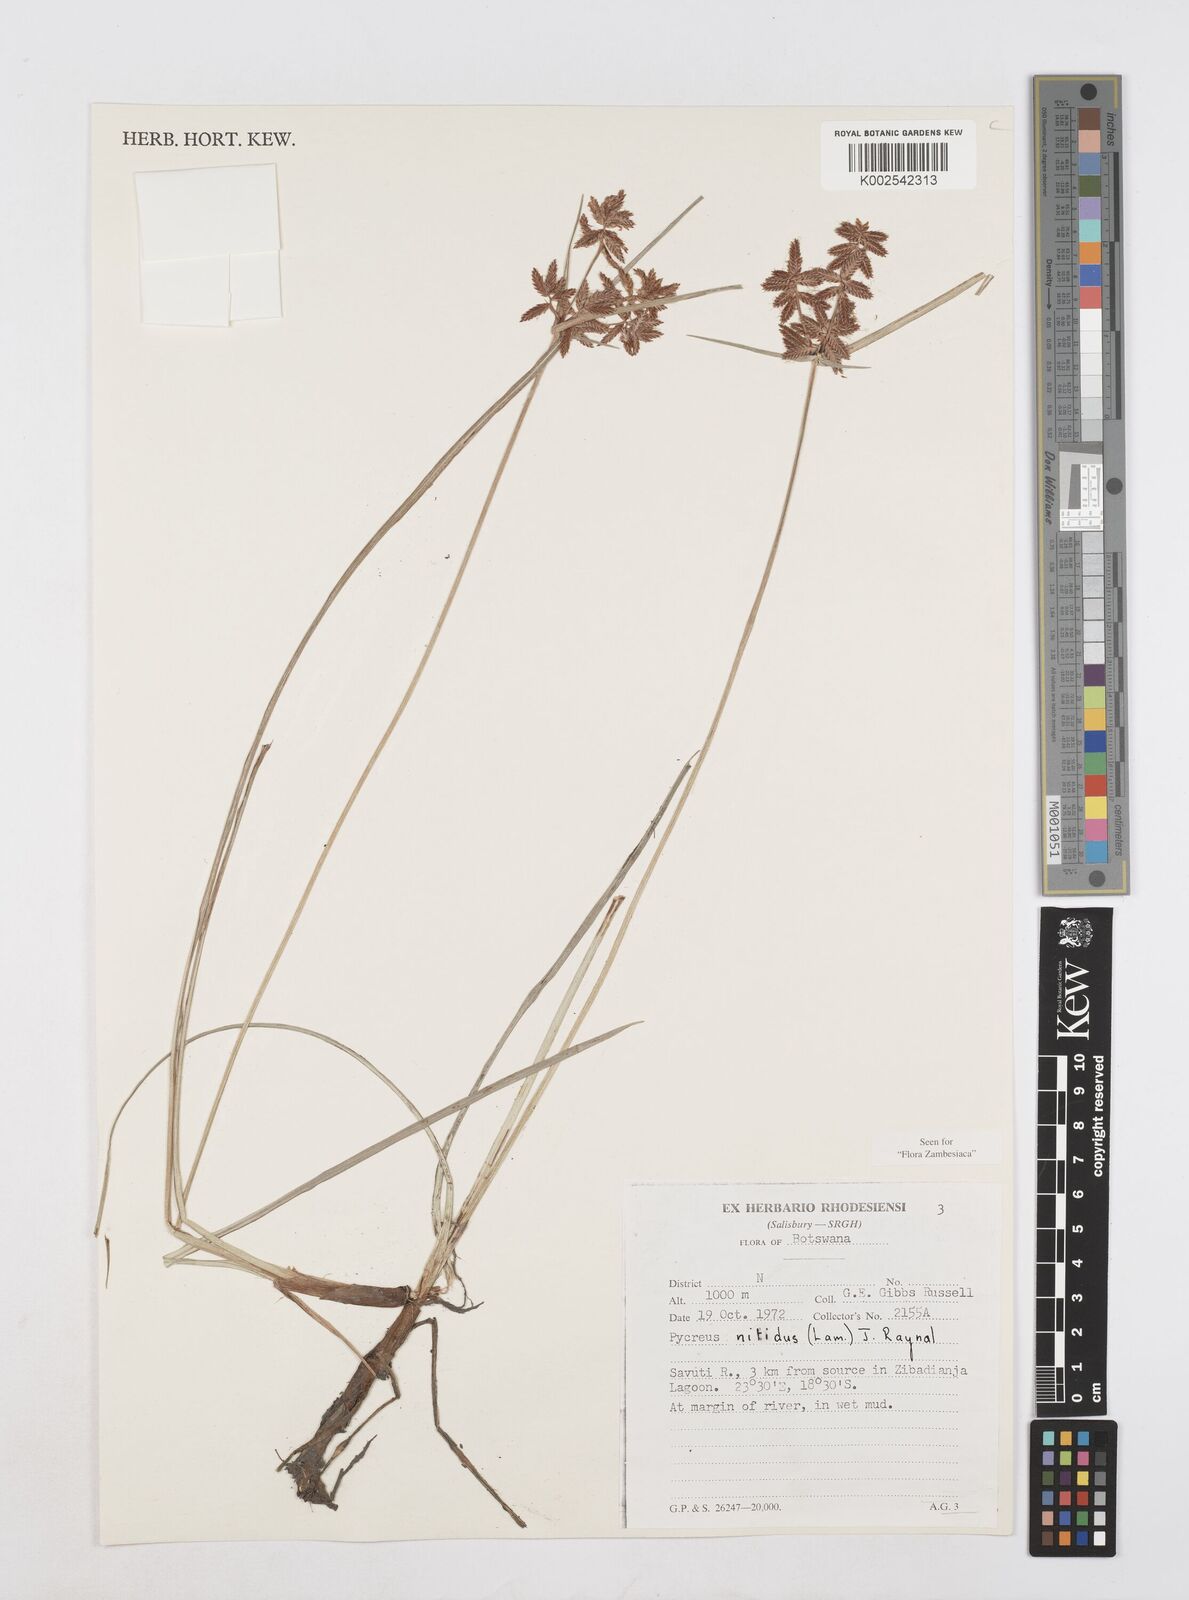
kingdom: Plantae
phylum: Tracheophyta
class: Liliopsida
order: Poales
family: Cyperaceae
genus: Cyperus
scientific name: Cyperus nitidus
